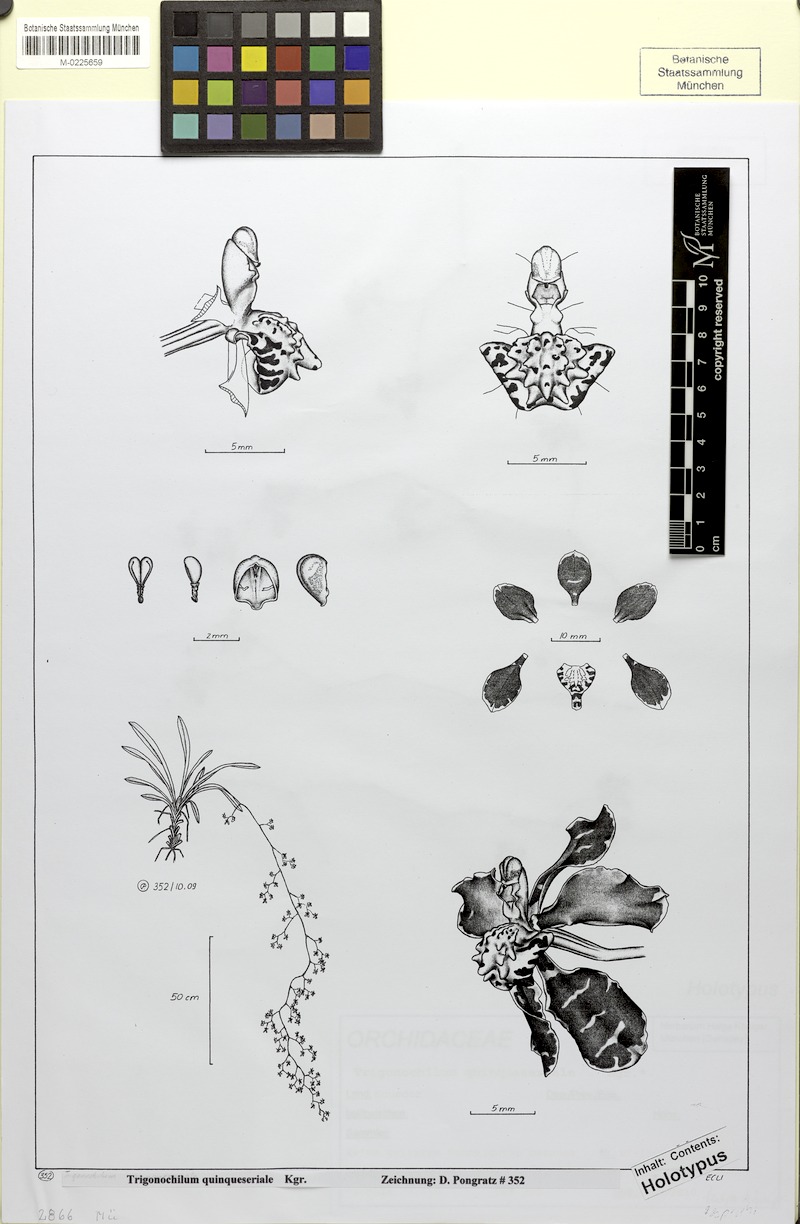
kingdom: Plantae
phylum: Tracheophyta
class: Liliopsida
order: Asparagales
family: Orchidaceae
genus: Cyrtochilum
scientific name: Cyrtochilum quinqueseriale
